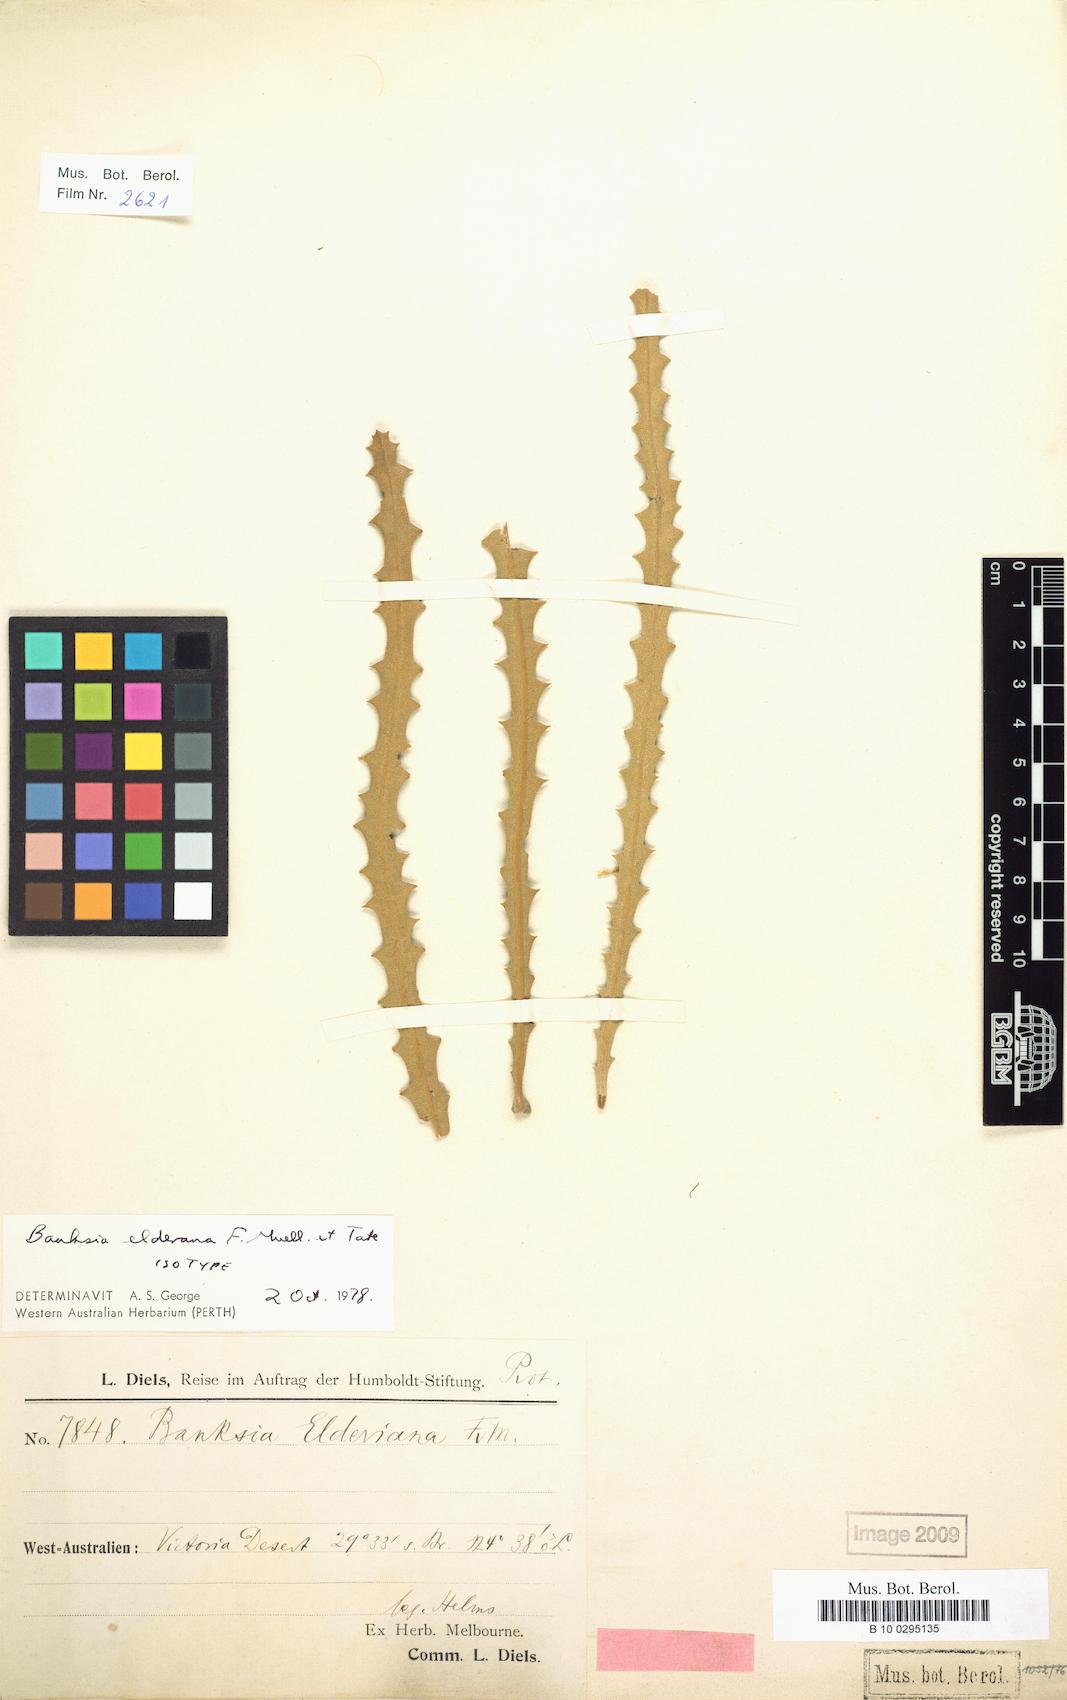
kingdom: Plantae
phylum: Tracheophyta
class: Magnoliopsida
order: Proteales
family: Proteaceae
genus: Banksia
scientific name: Banksia elderiana
